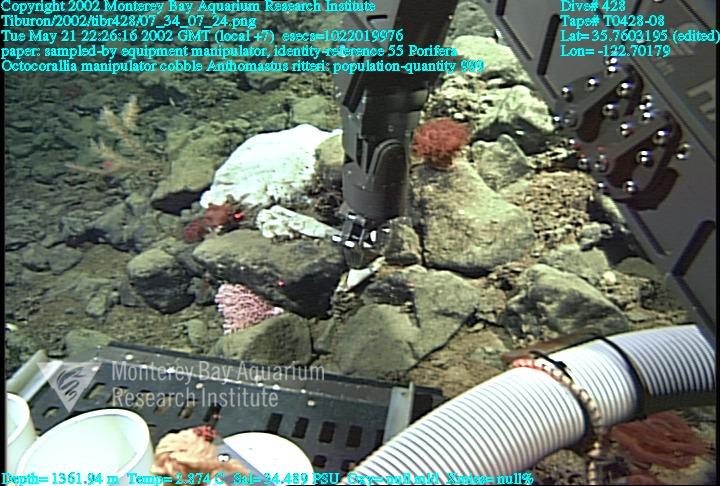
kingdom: Animalia
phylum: Porifera
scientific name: Porifera
